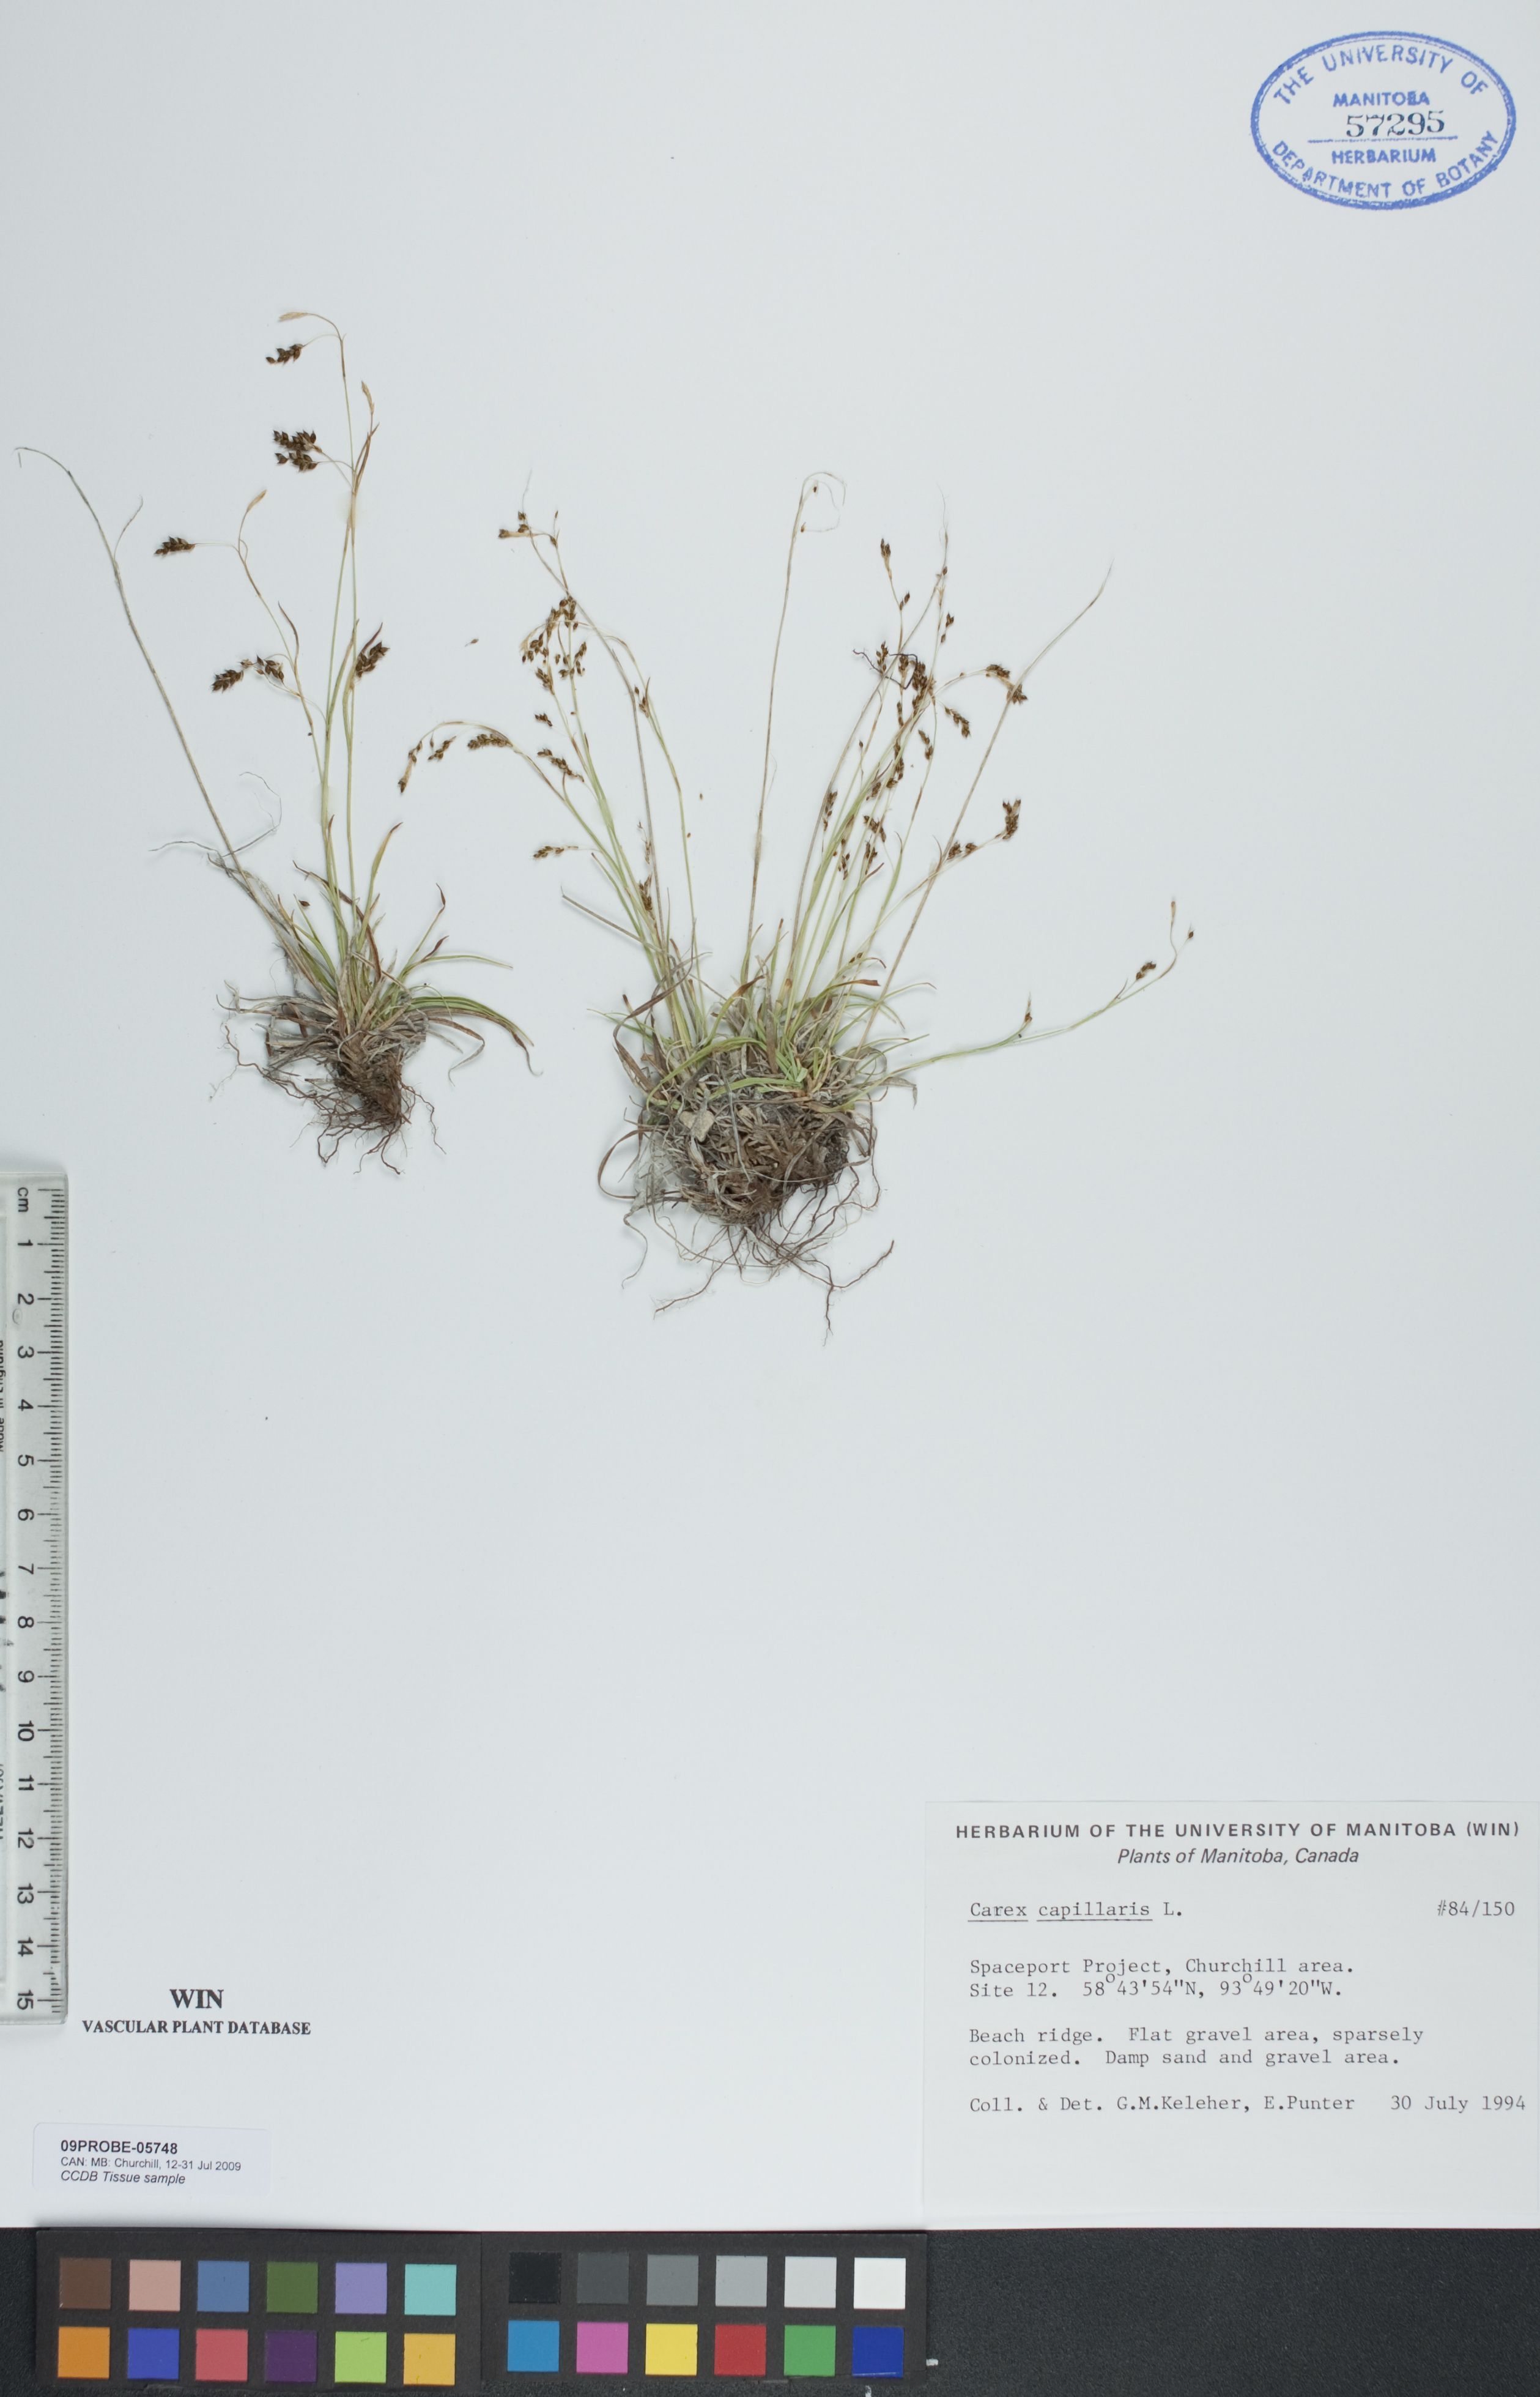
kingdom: Plantae
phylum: Tracheophyta
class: Liliopsida
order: Poales
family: Cyperaceae
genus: Carex
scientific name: Carex capillaris
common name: Hair sedge
